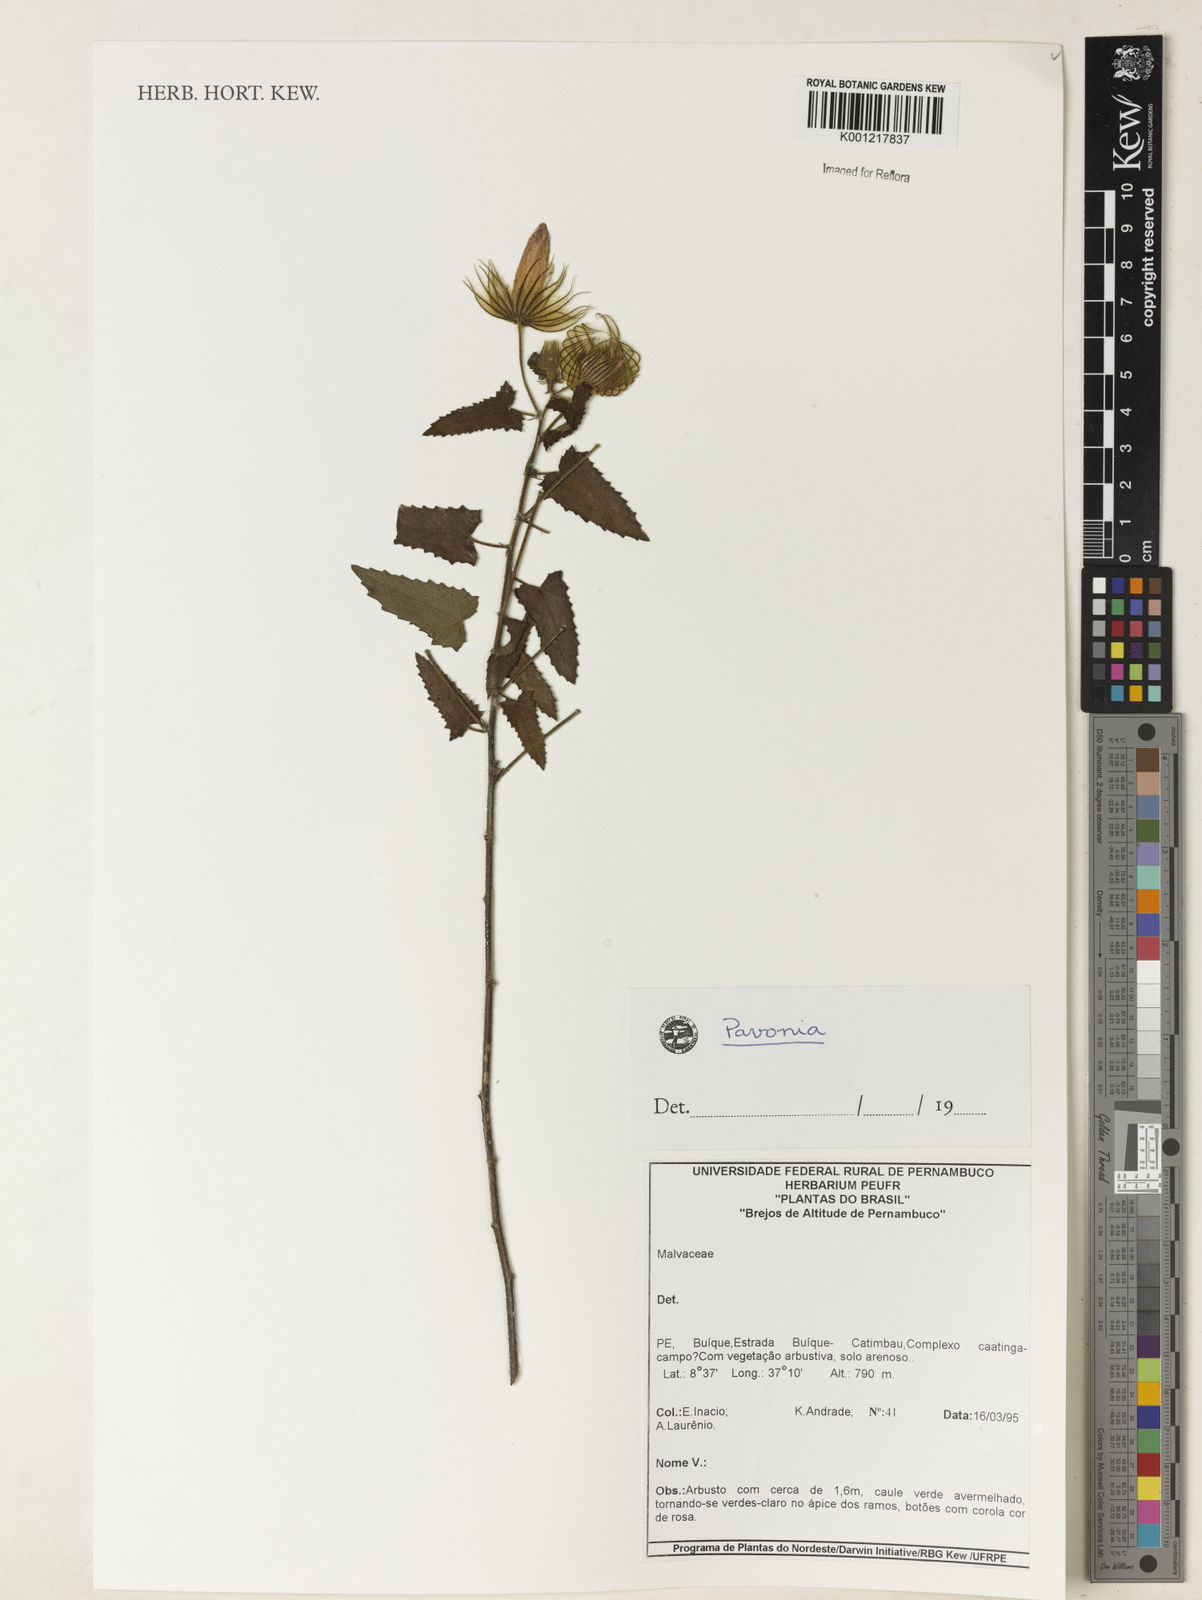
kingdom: Plantae
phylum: Tracheophyta
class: Magnoliopsida
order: Malvales
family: Malvaceae
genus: Pavonia
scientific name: Pavonia
